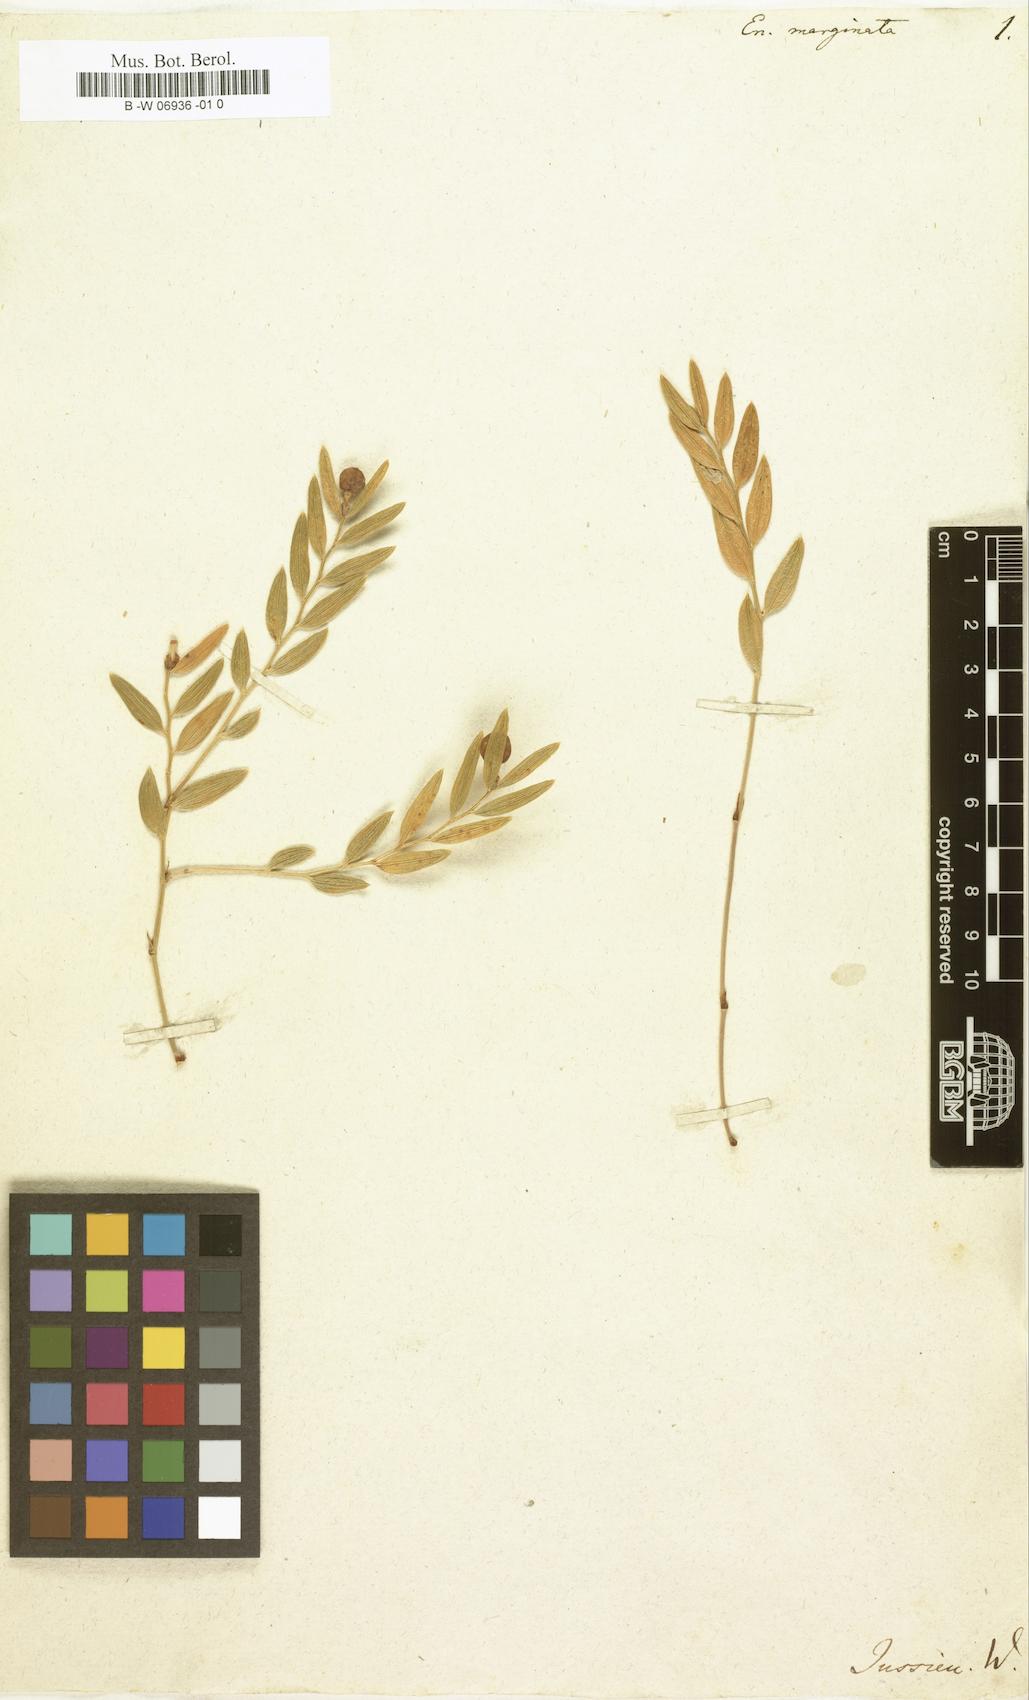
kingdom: Plantae
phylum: Tracheophyta
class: Liliopsida
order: Liliales
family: Alstroemeriaceae
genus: Luzuriaga
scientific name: Luzuriaga marginata
